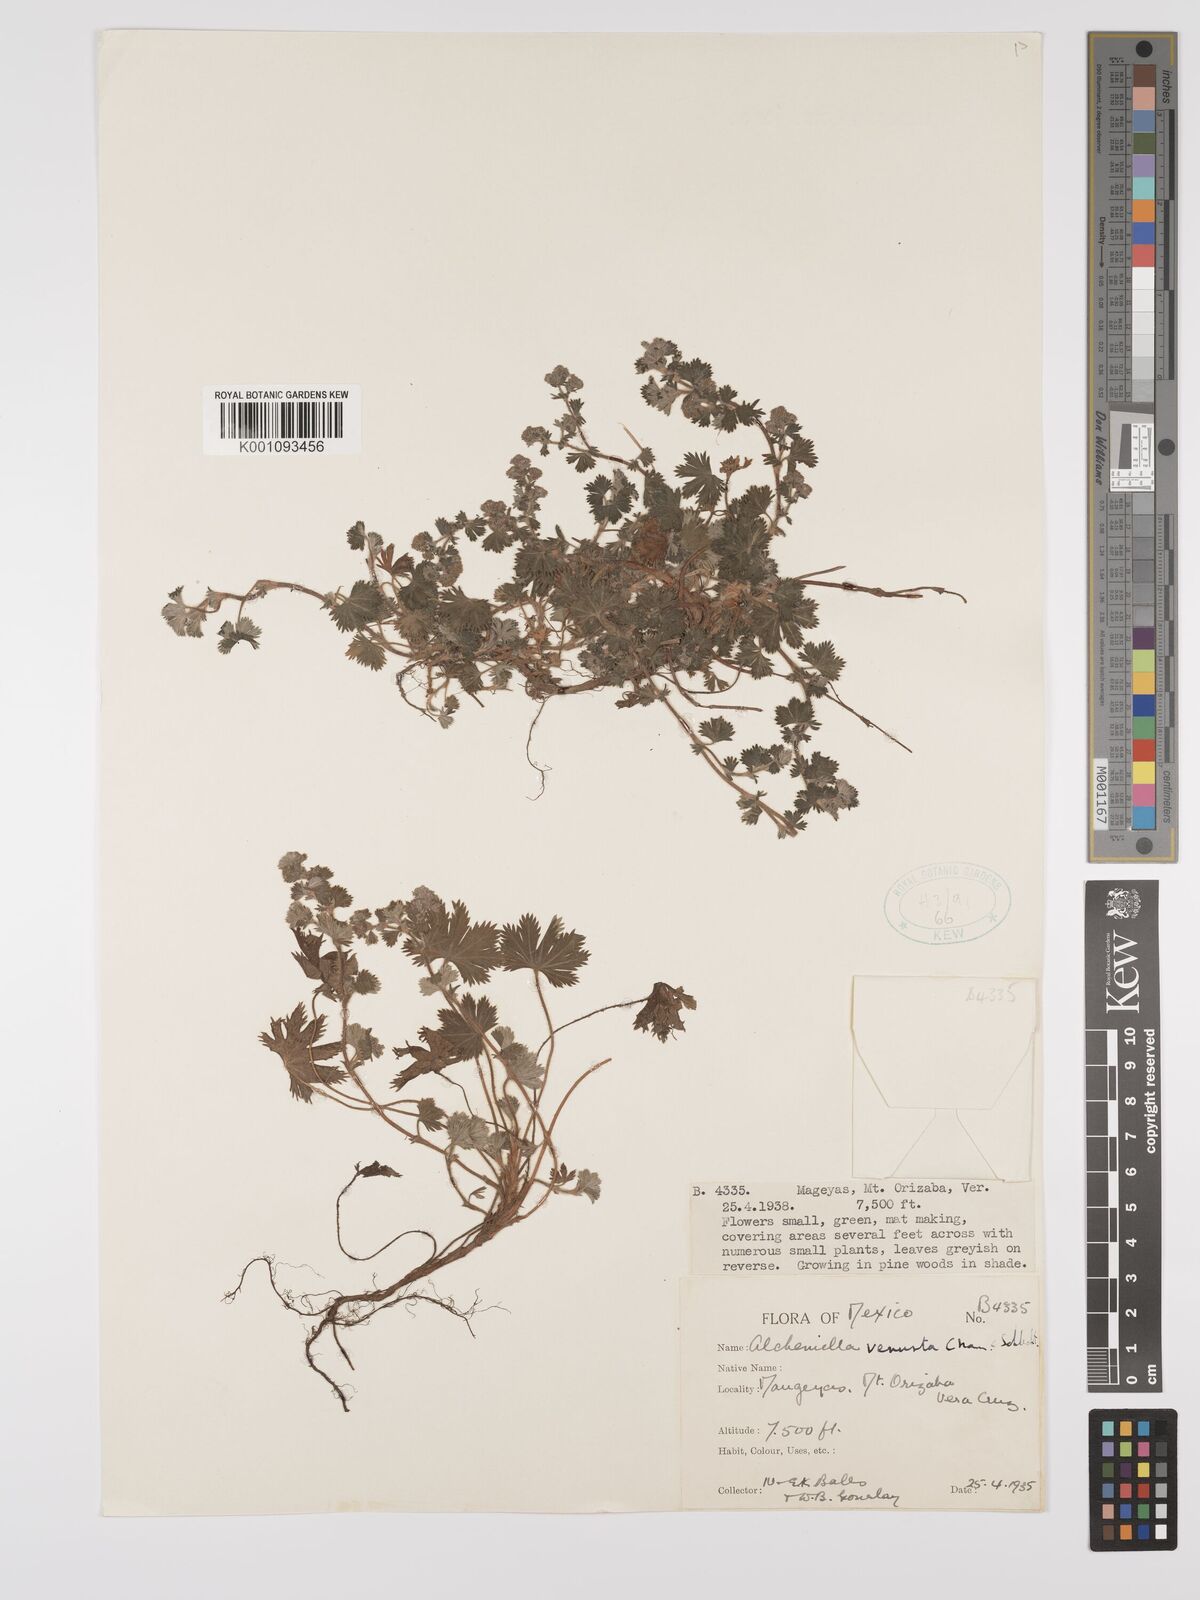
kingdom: Plantae
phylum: Tracheophyta
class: Magnoliopsida
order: Rosales
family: Rosaceae
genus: Lachemilla
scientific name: Lachemilla venusta
